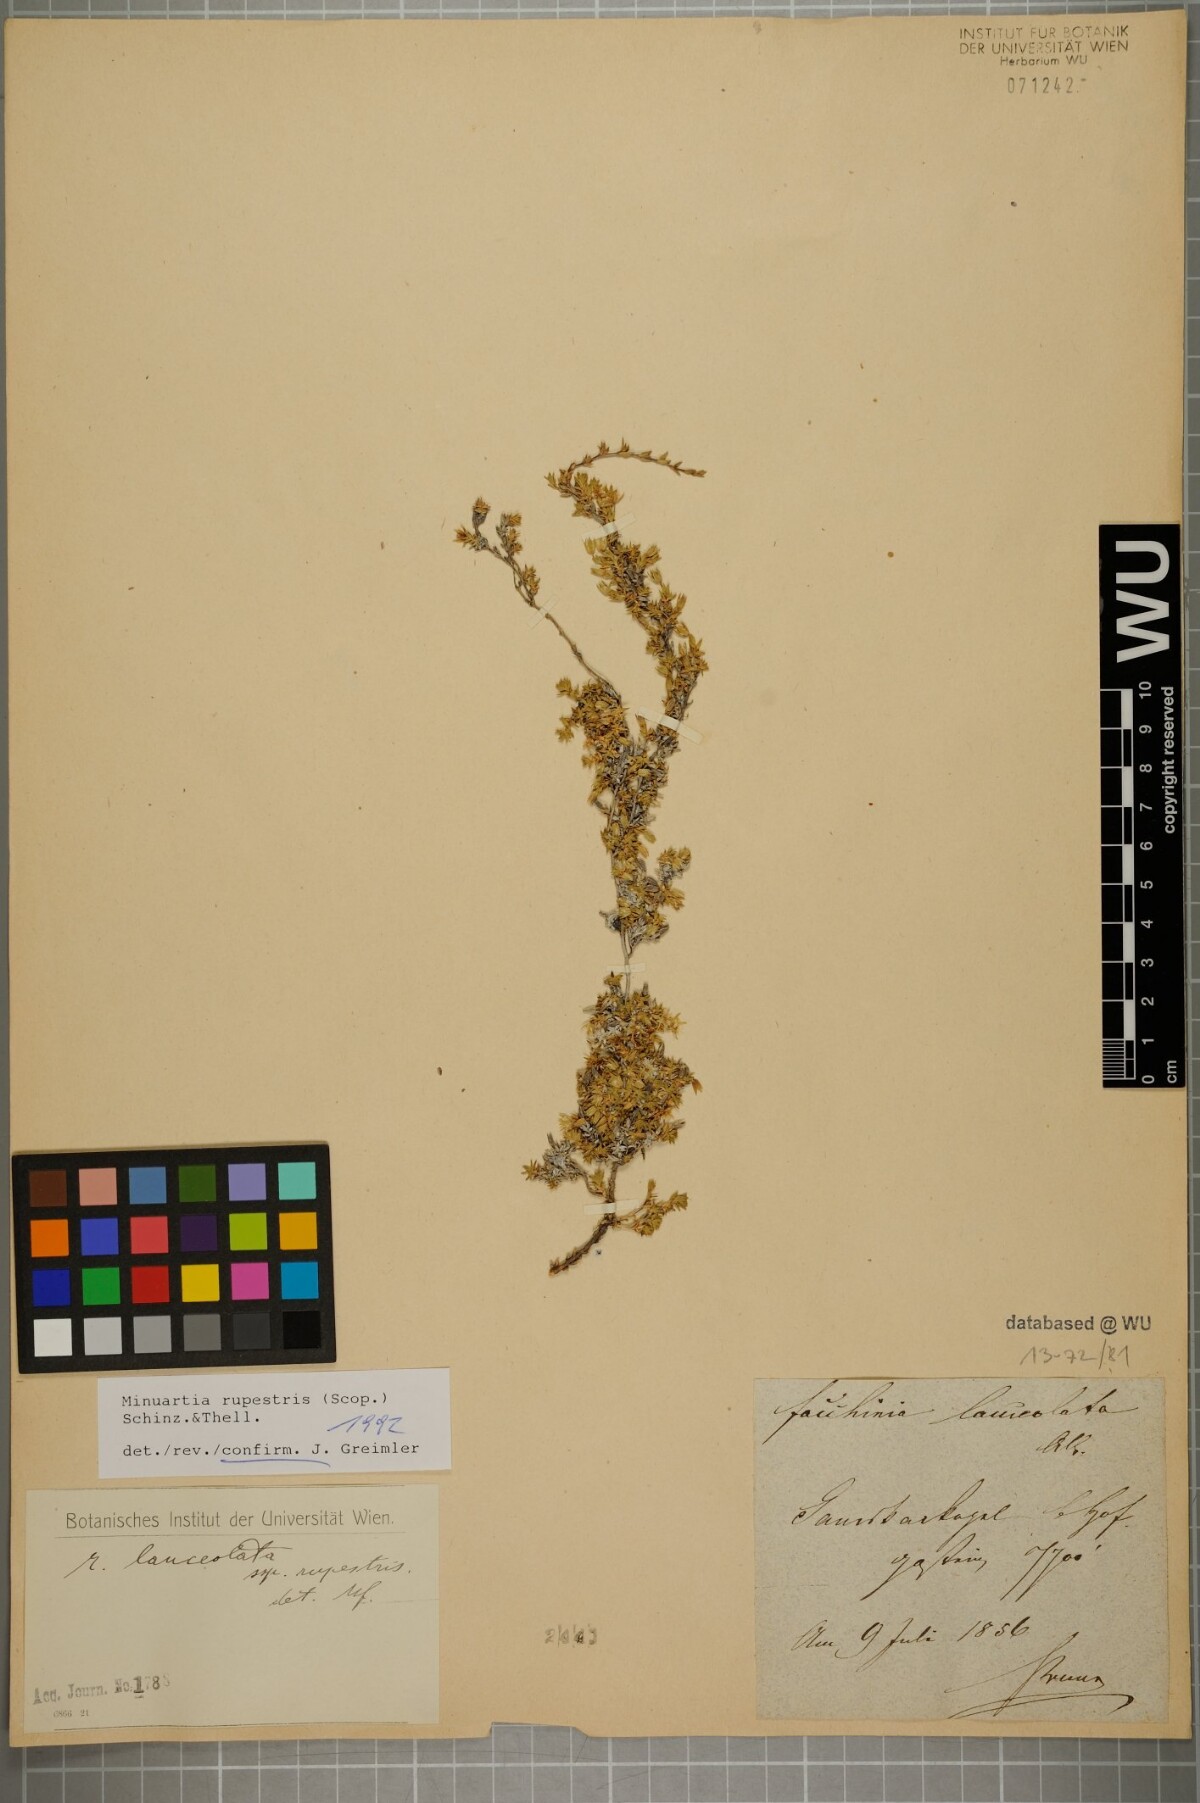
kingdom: Plantae
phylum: Tracheophyta
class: Magnoliopsida
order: Caryophyllales
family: Caryophyllaceae
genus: Facchinia
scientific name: Facchinia rupestris
